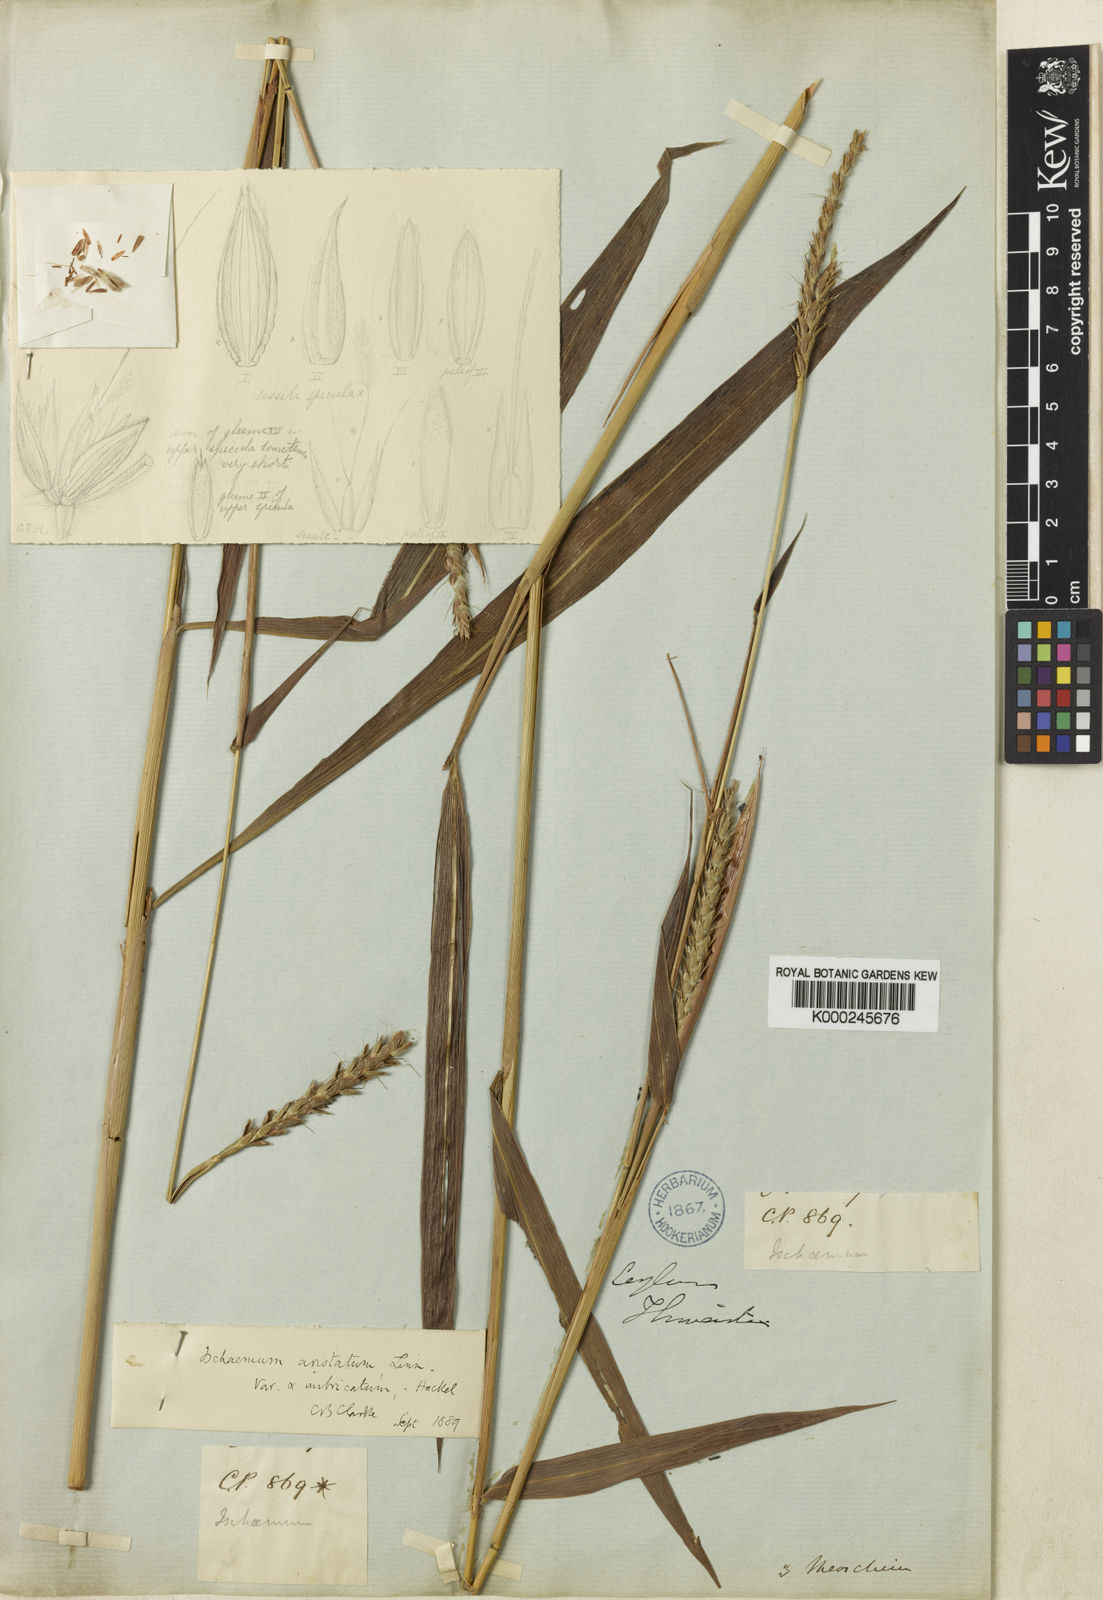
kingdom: Plantae
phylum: Tracheophyta
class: Liliopsida
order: Poales
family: Poaceae
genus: Ischaemum
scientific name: Ischaemum barbatum
